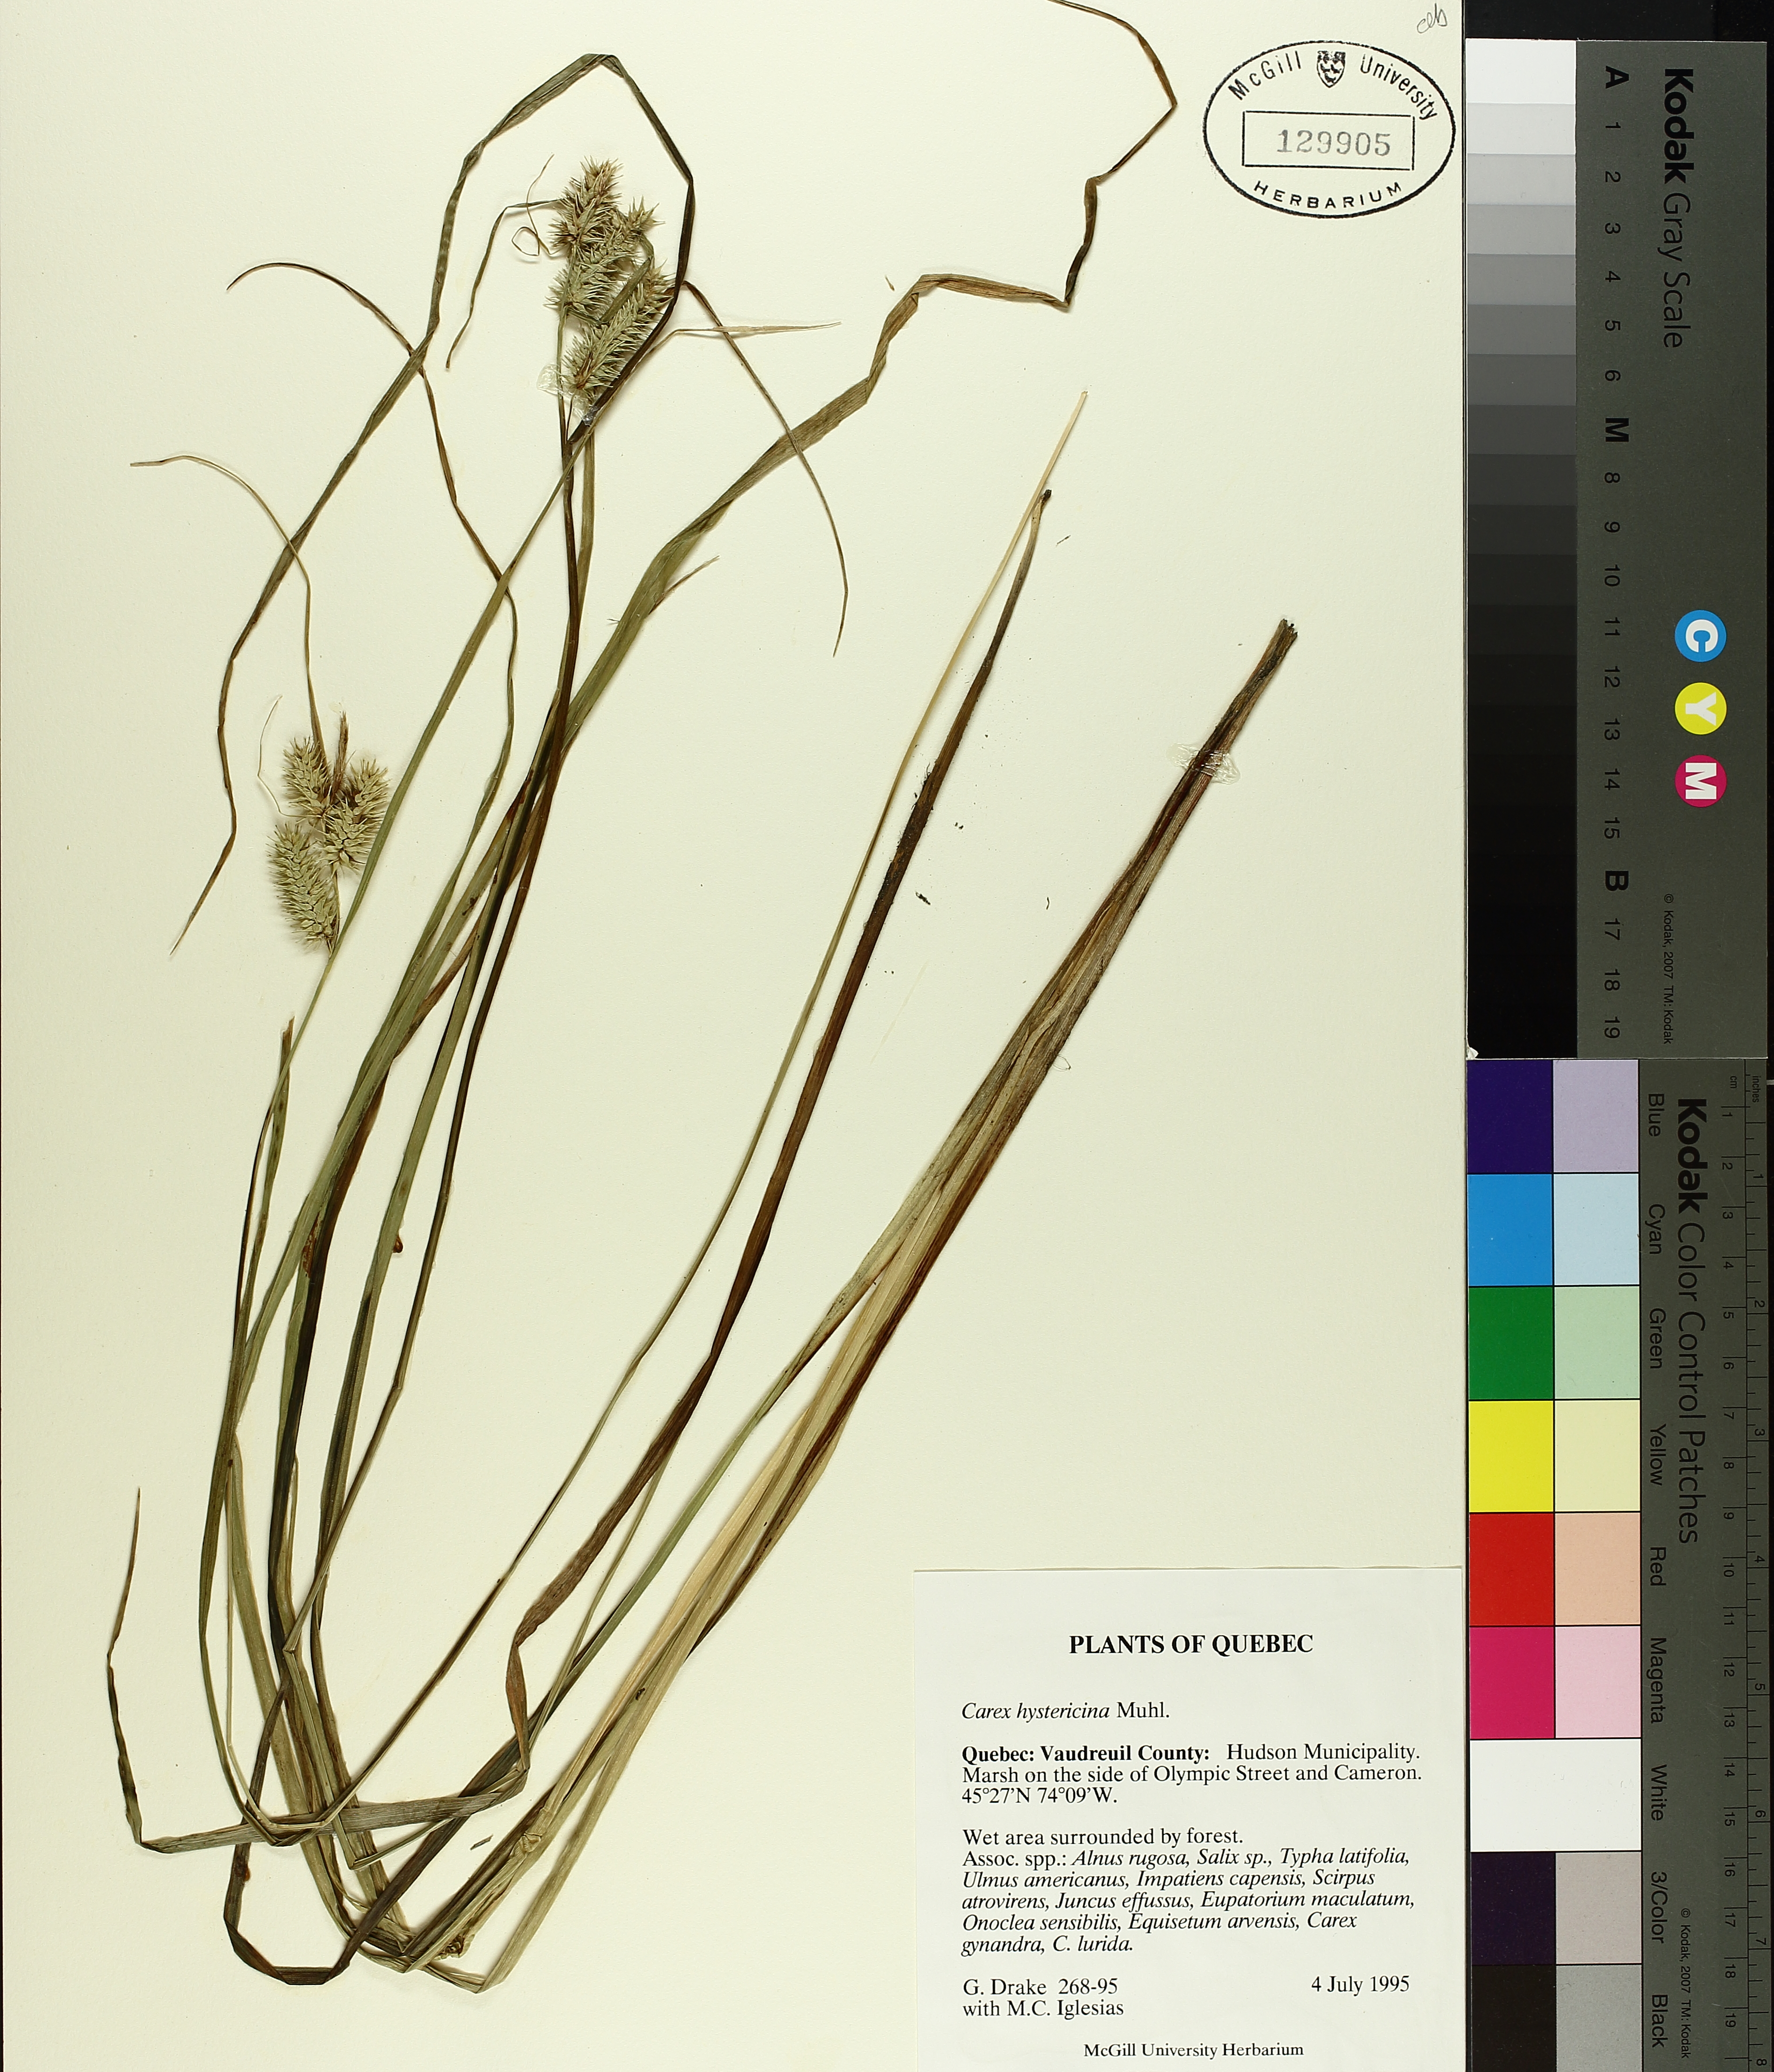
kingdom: Plantae
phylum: Tracheophyta
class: Liliopsida
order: Poales
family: Cyperaceae
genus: Carex
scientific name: Carex hystericina
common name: Bottlebrush sedge
